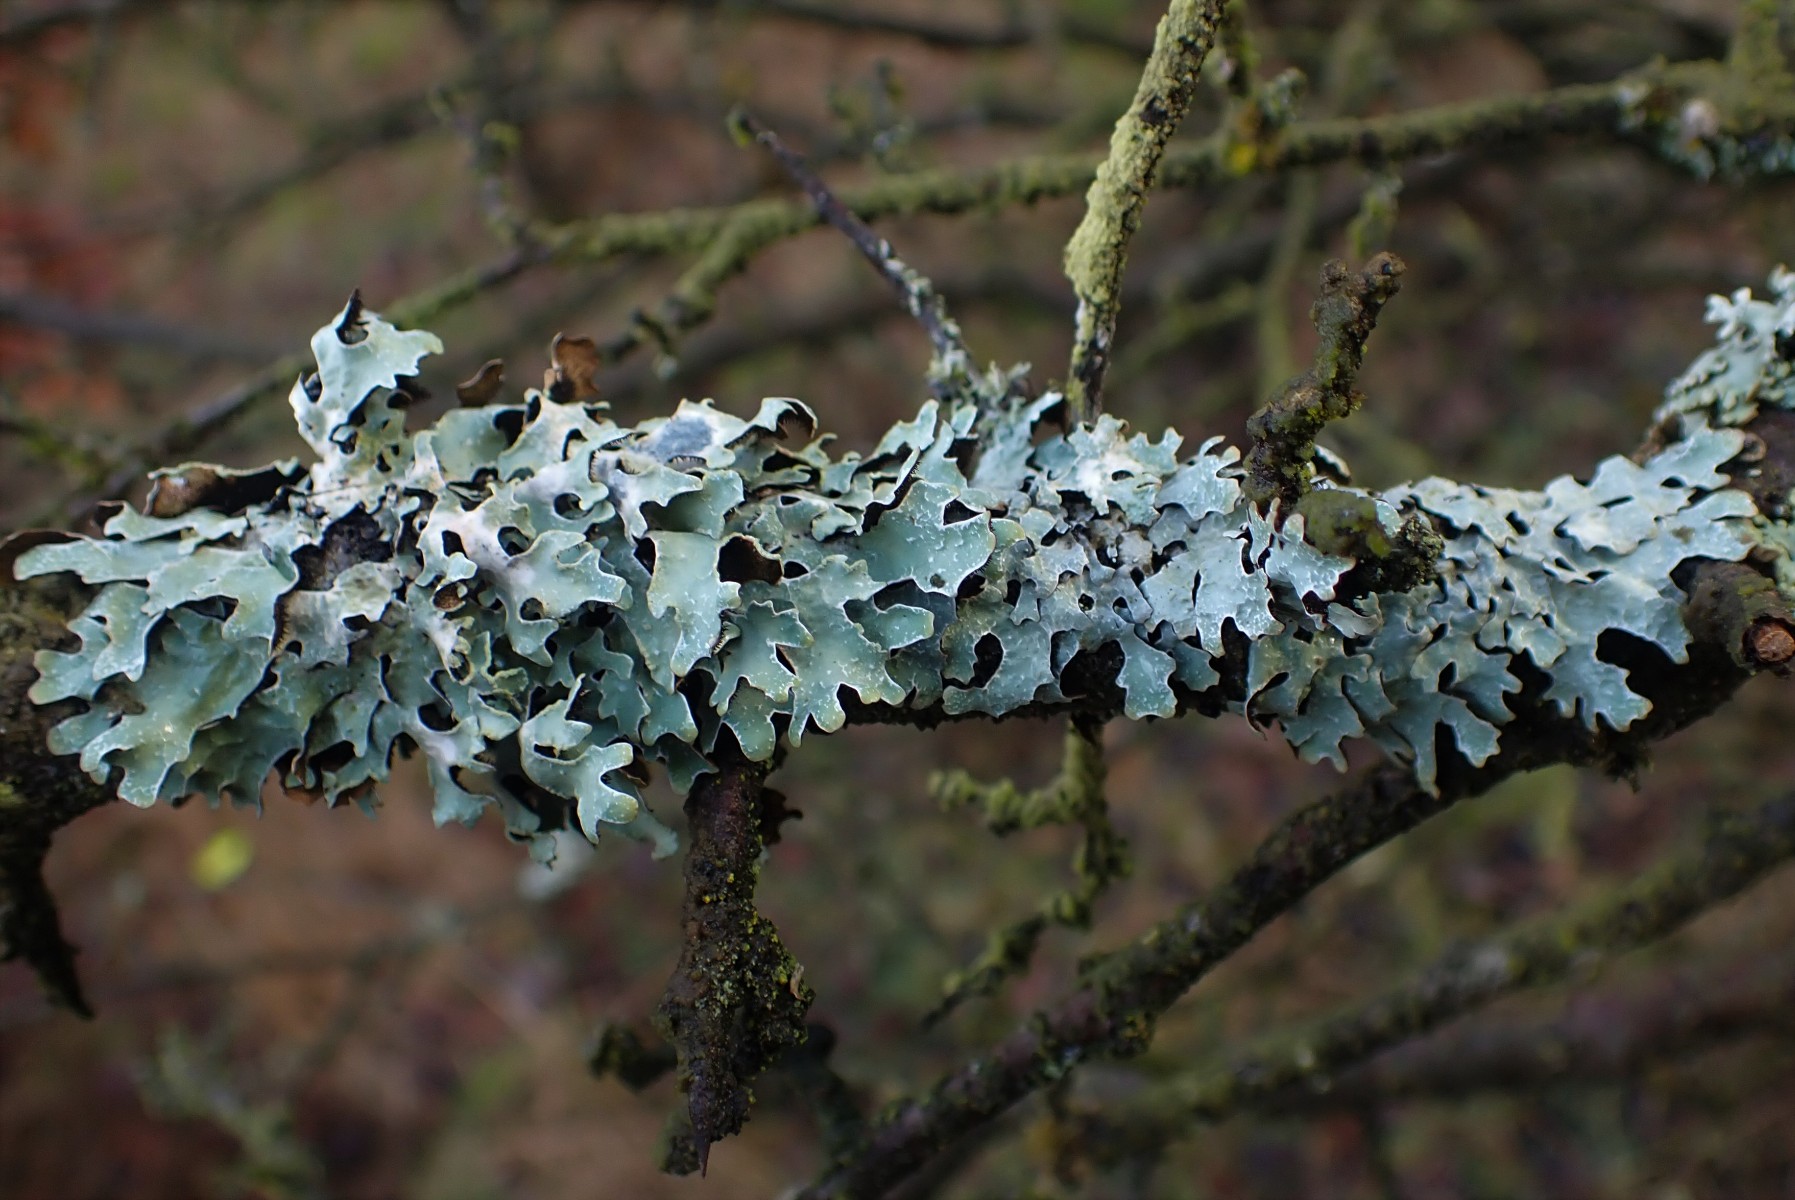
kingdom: Fungi
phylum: Ascomycota
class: Lecanoromycetes
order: Lecanorales
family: Parmeliaceae
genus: Parmelia
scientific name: Parmelia sulcata
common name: rynket skållav
